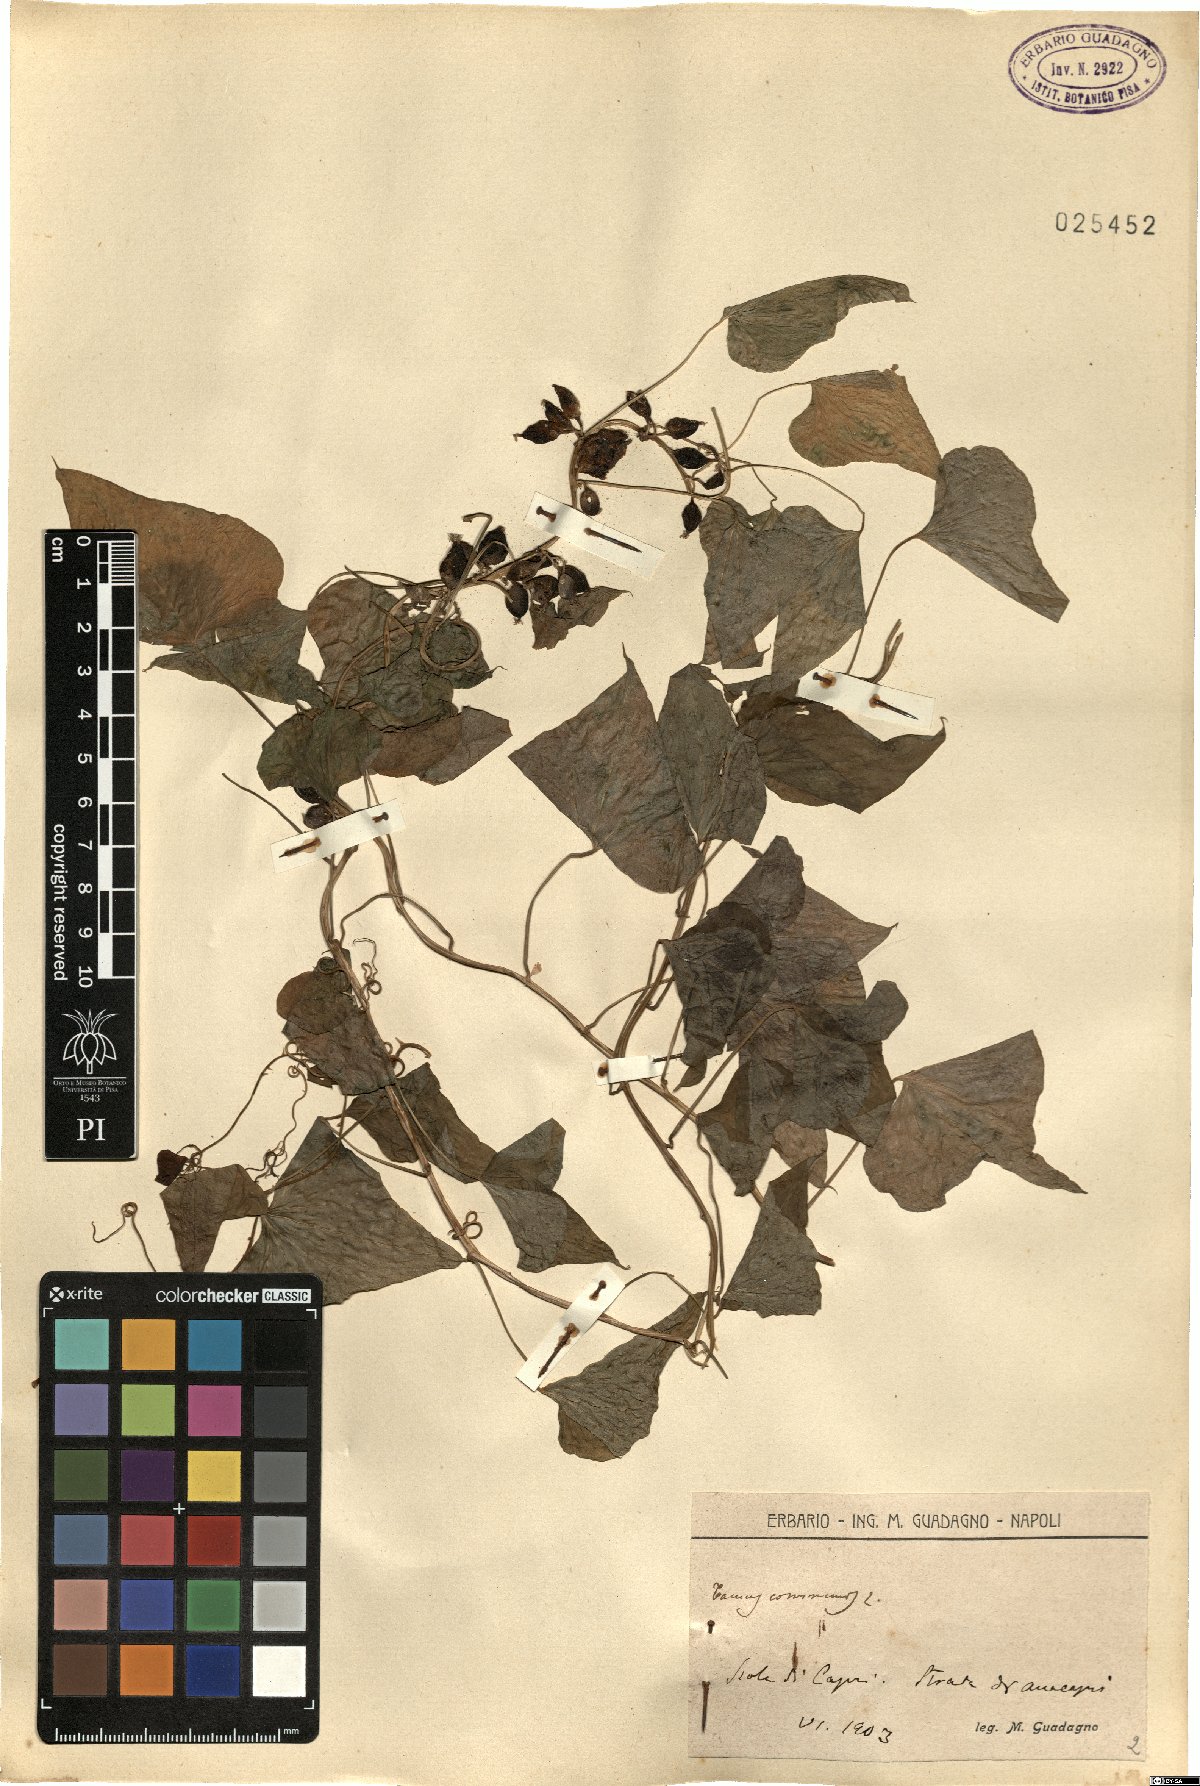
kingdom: Plantae
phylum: Tracheophyta
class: Liliopsida
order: Dioscoreales
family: Dioscoreaceae
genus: Dioscorea
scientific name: Dioscorea communis
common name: Black-bindweed
